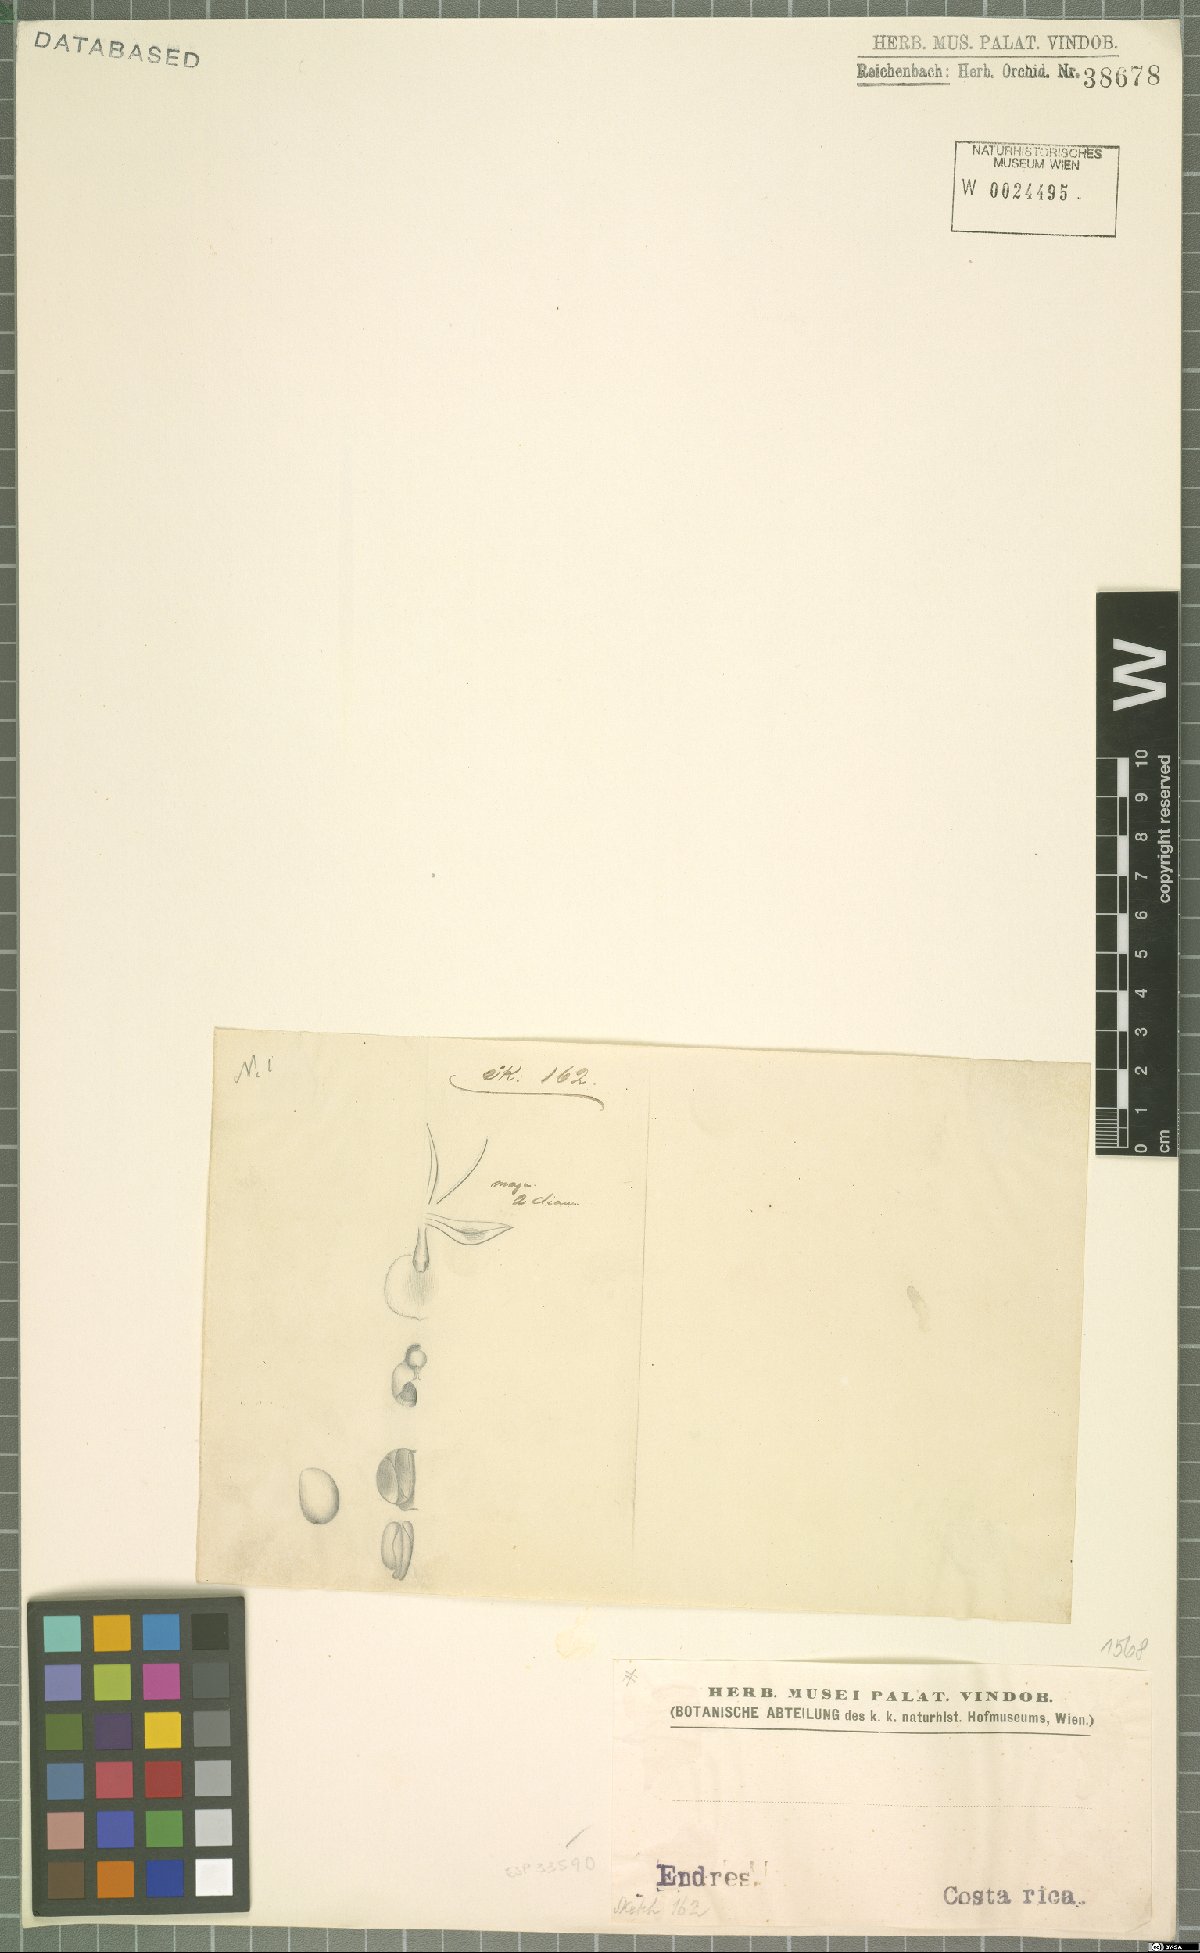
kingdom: Plantae
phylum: Tracheophyta
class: Liliopsida
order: Asparagales
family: Orchidaceae
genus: Epidendrum
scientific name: Epidendrum
